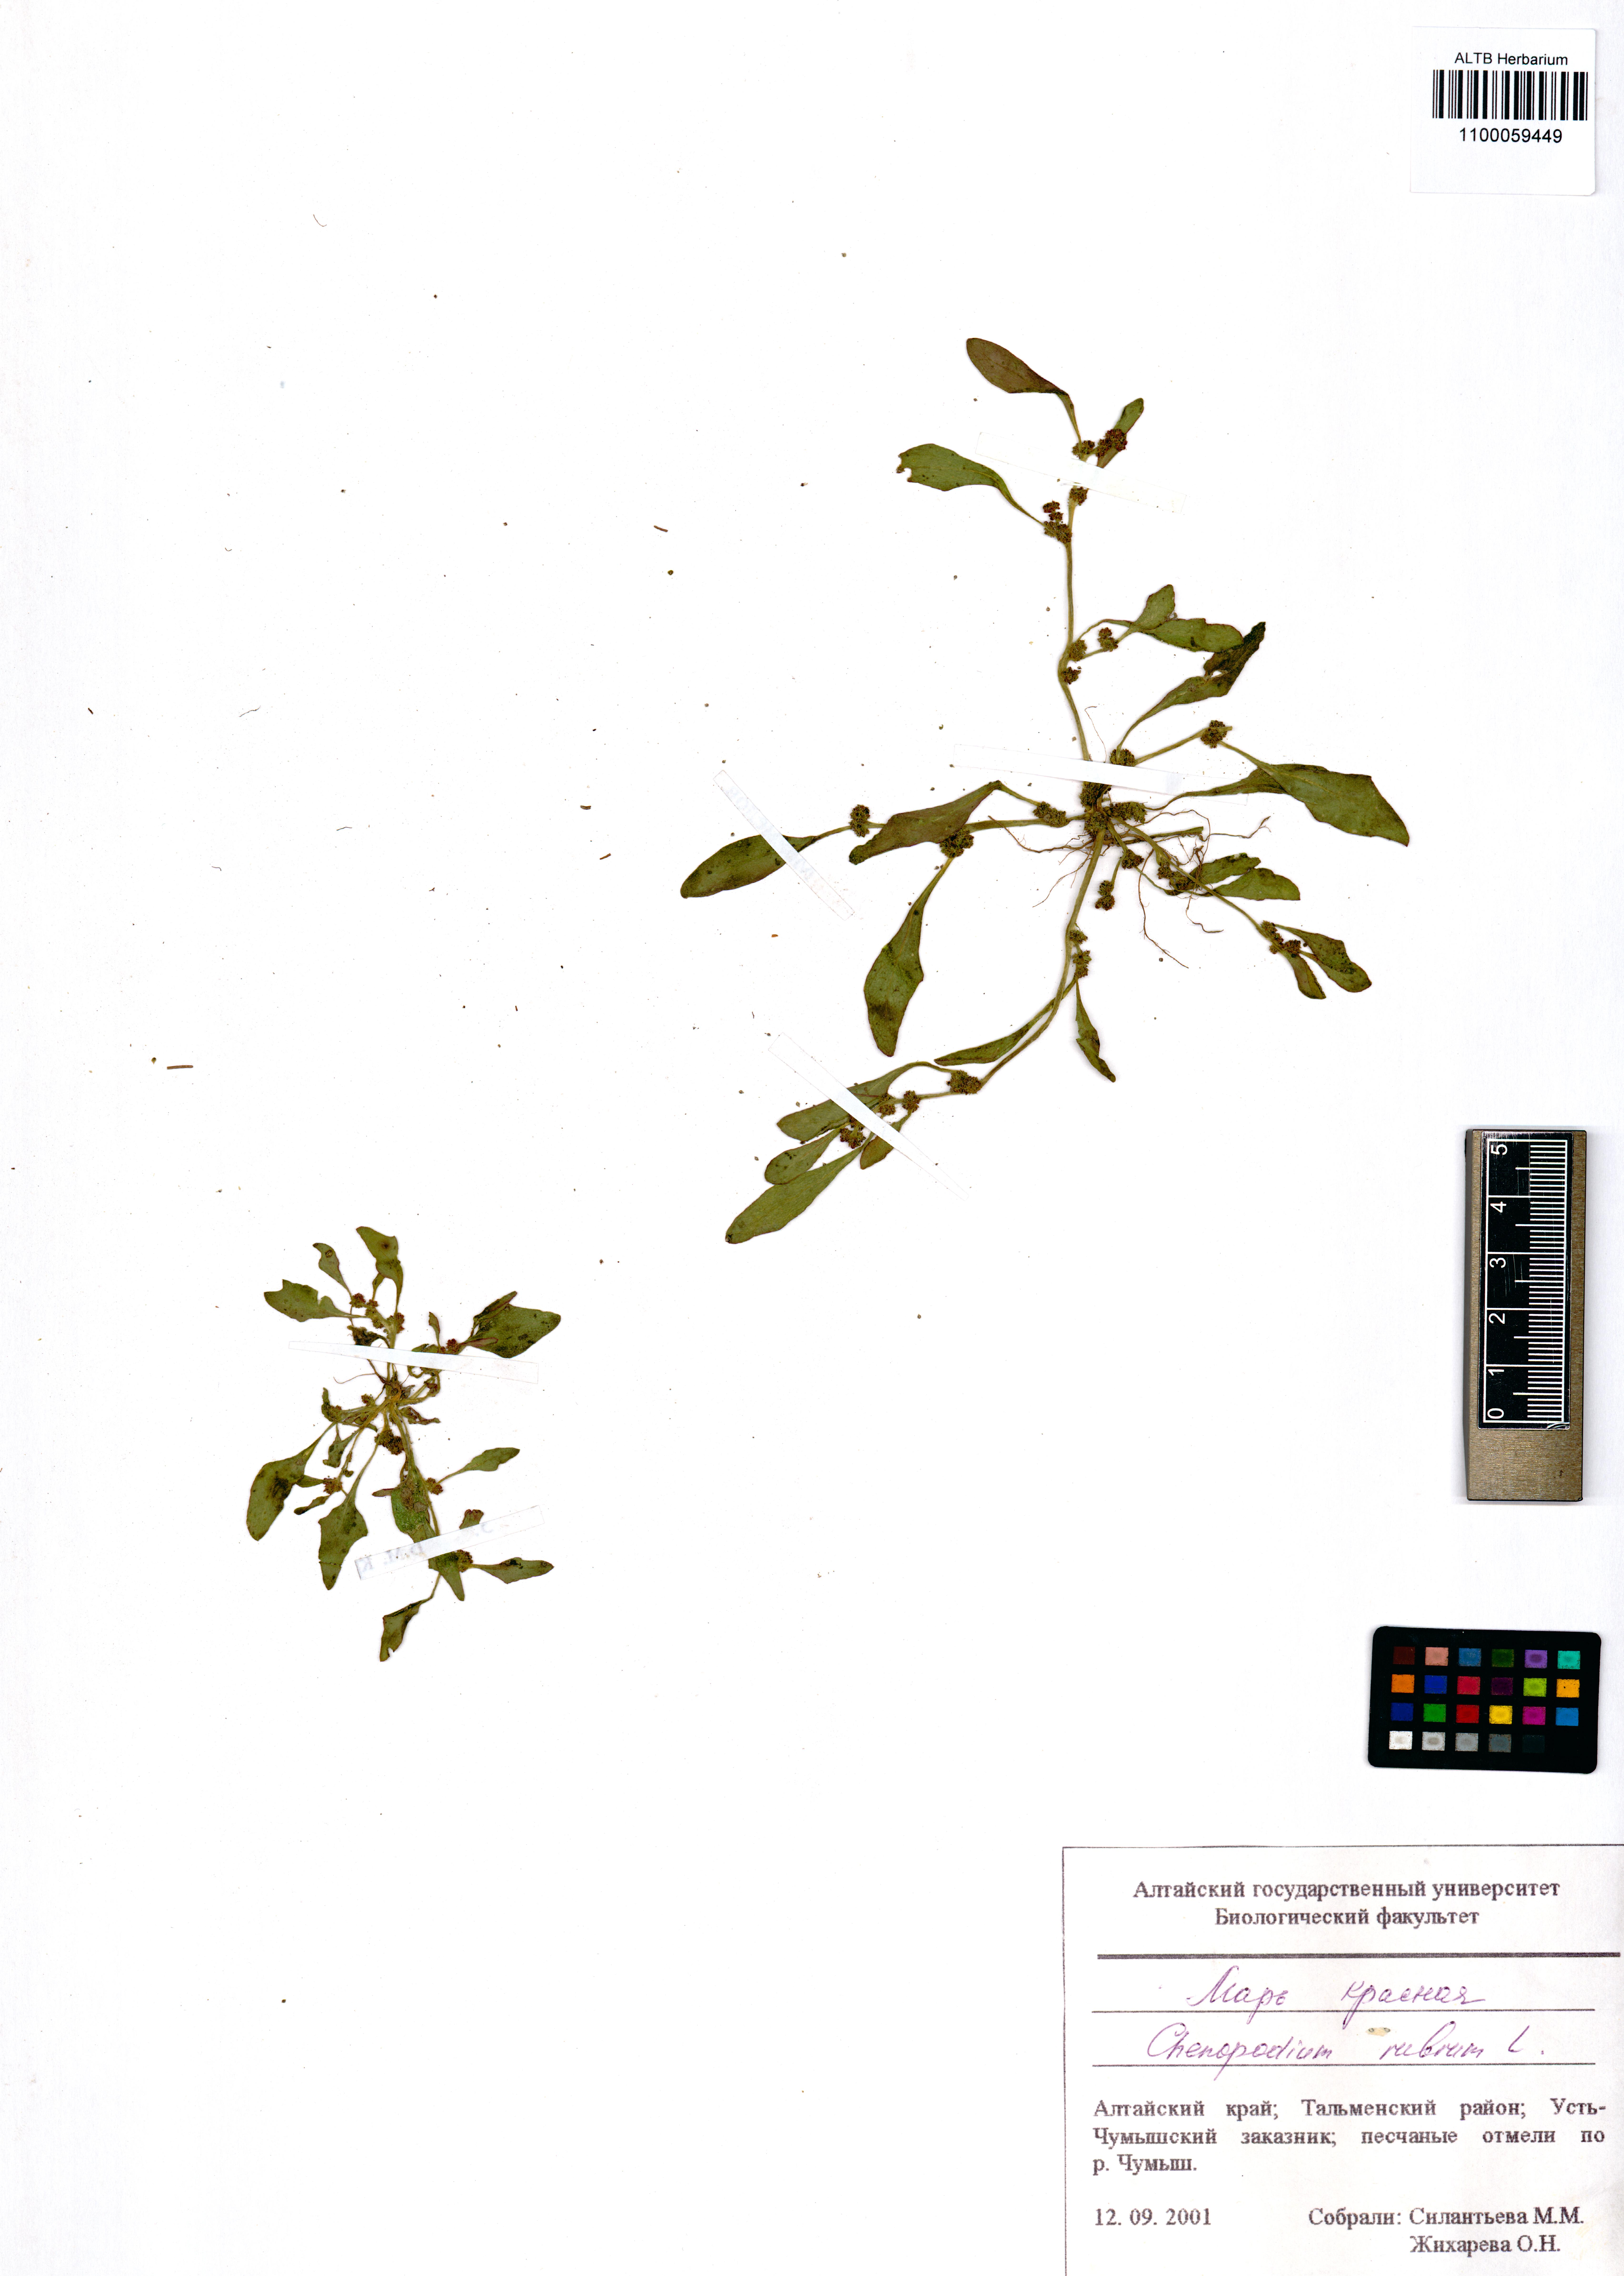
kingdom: Plantae
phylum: Tracheophyta
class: Magnoliopsida
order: Caryophyllales
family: Amaranthaceae
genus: Oxybasis
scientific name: Oxybasis rubra
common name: Red goosefoot
